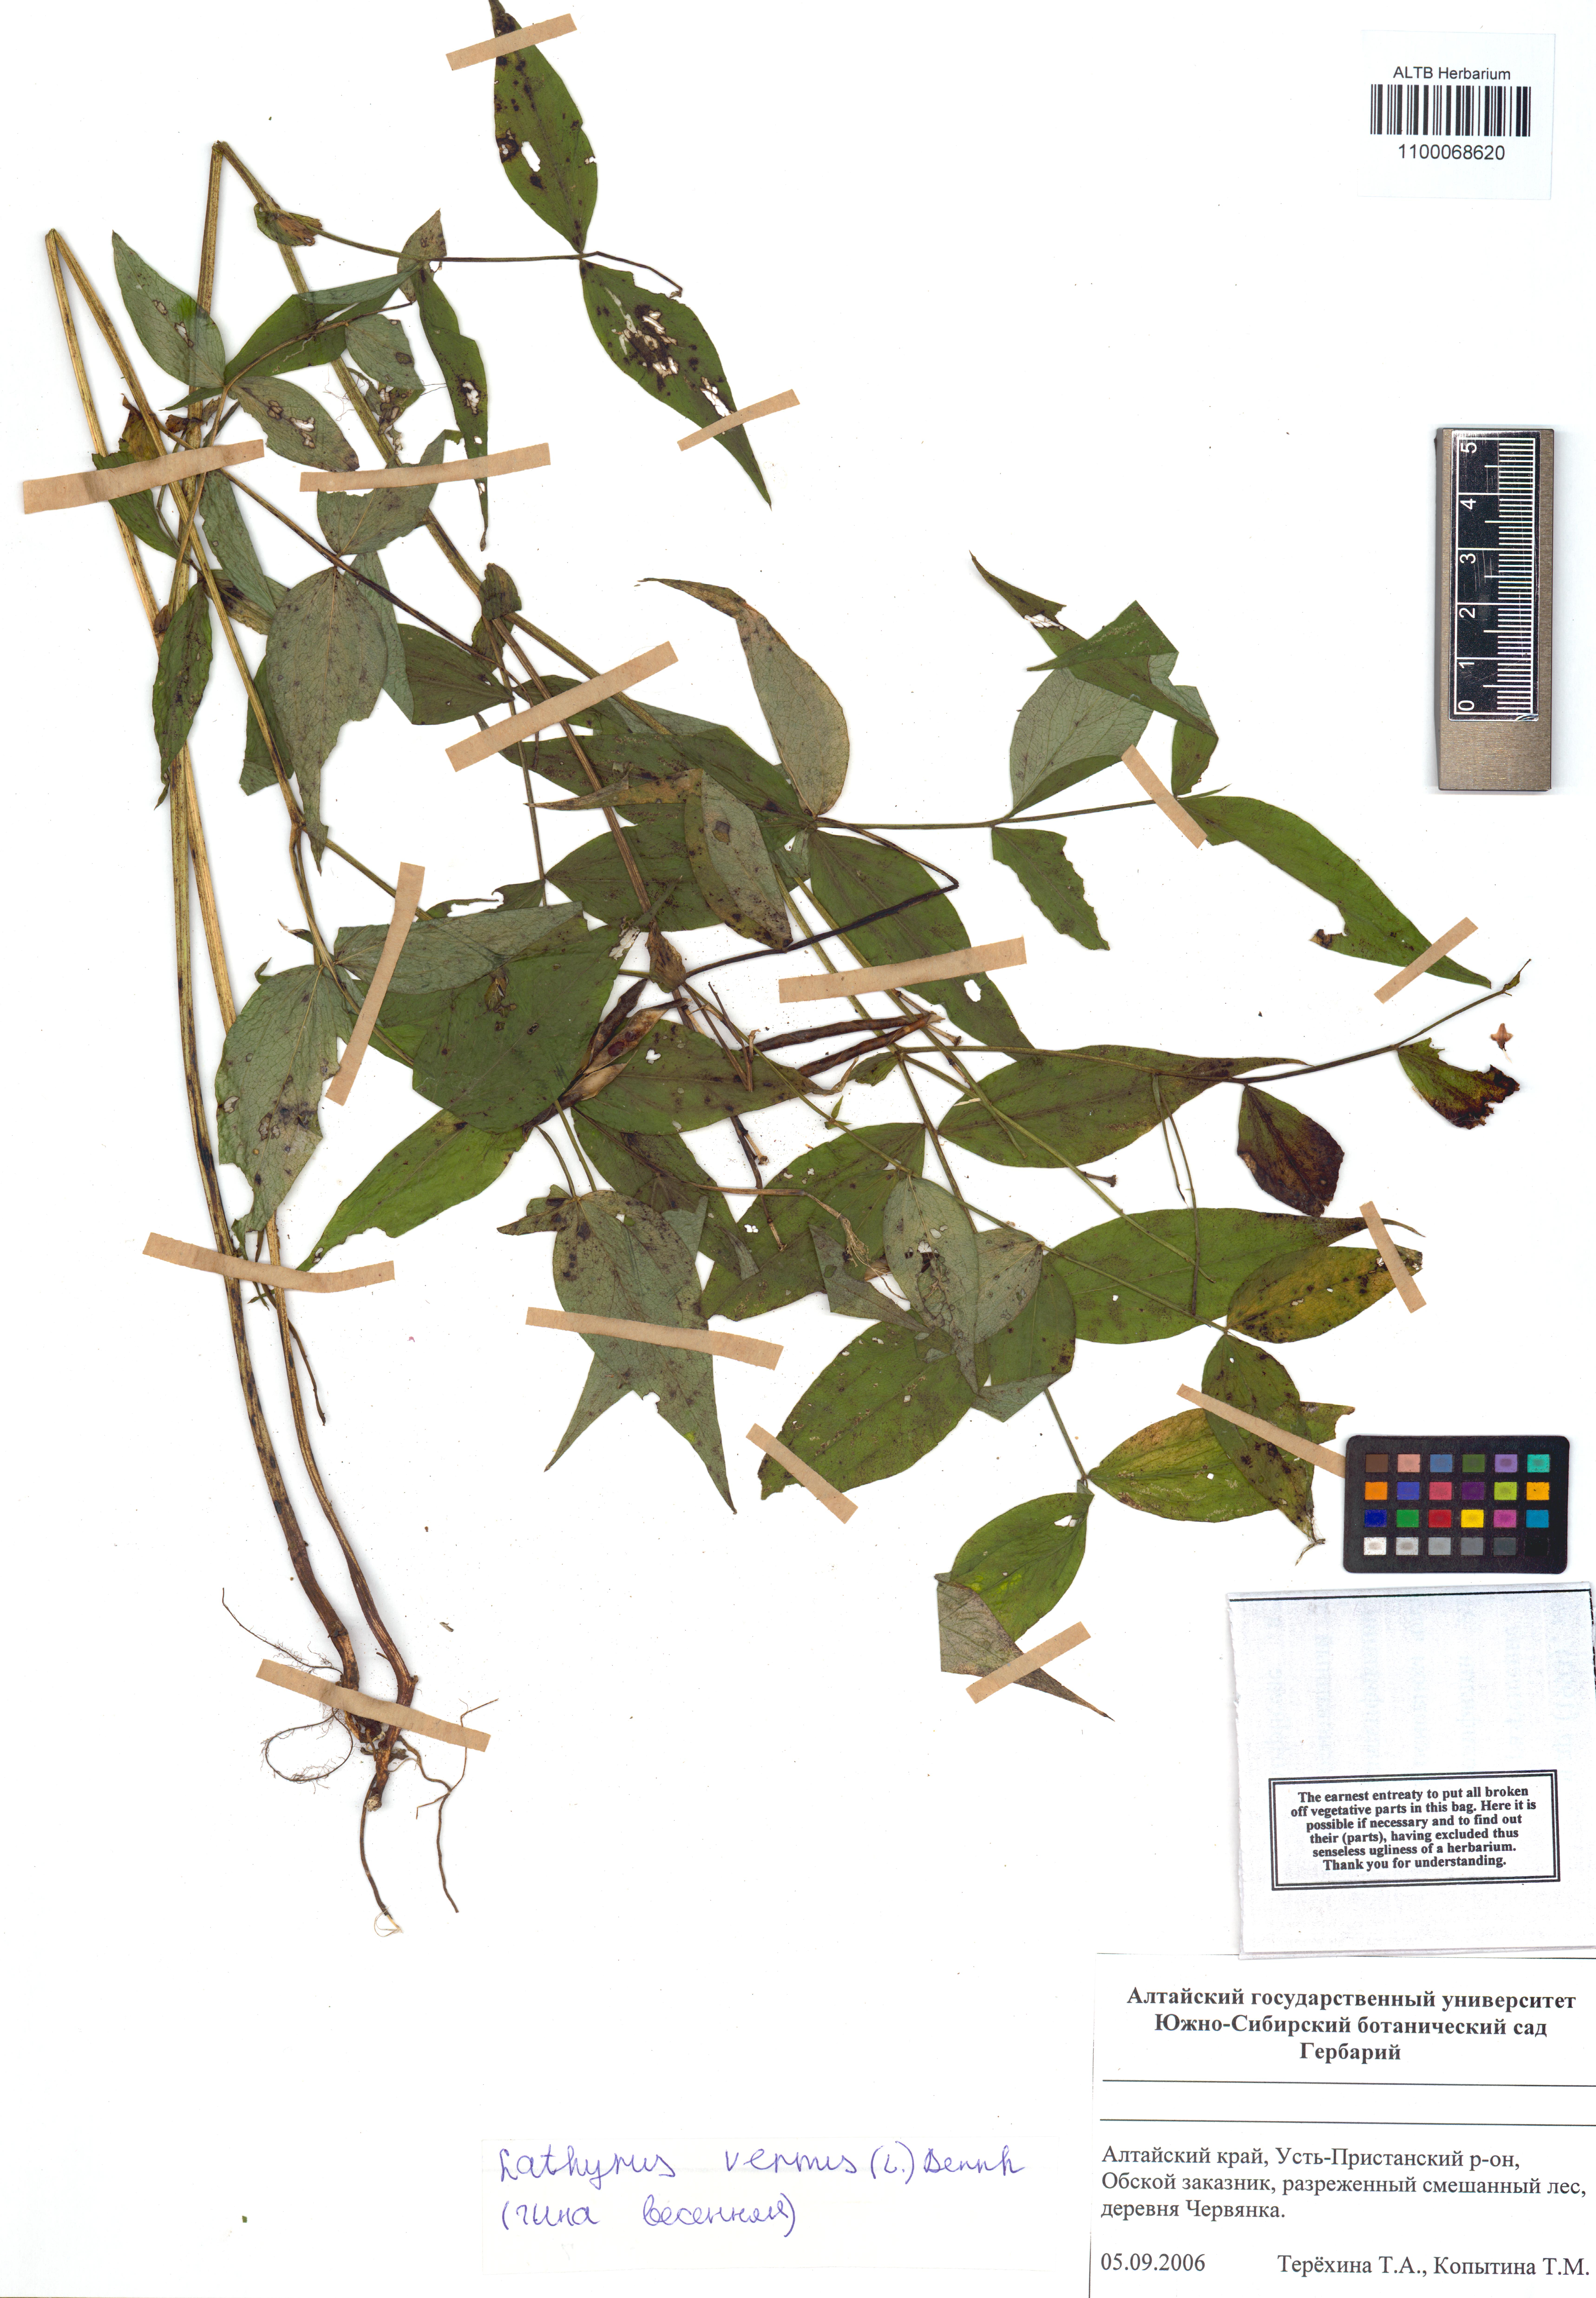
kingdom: Plantae
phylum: Tracheophyta
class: Magnoliopsida
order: Fabales
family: Fabaceae
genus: Lathyrus
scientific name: Lathyrus vernus
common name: Spring pea
